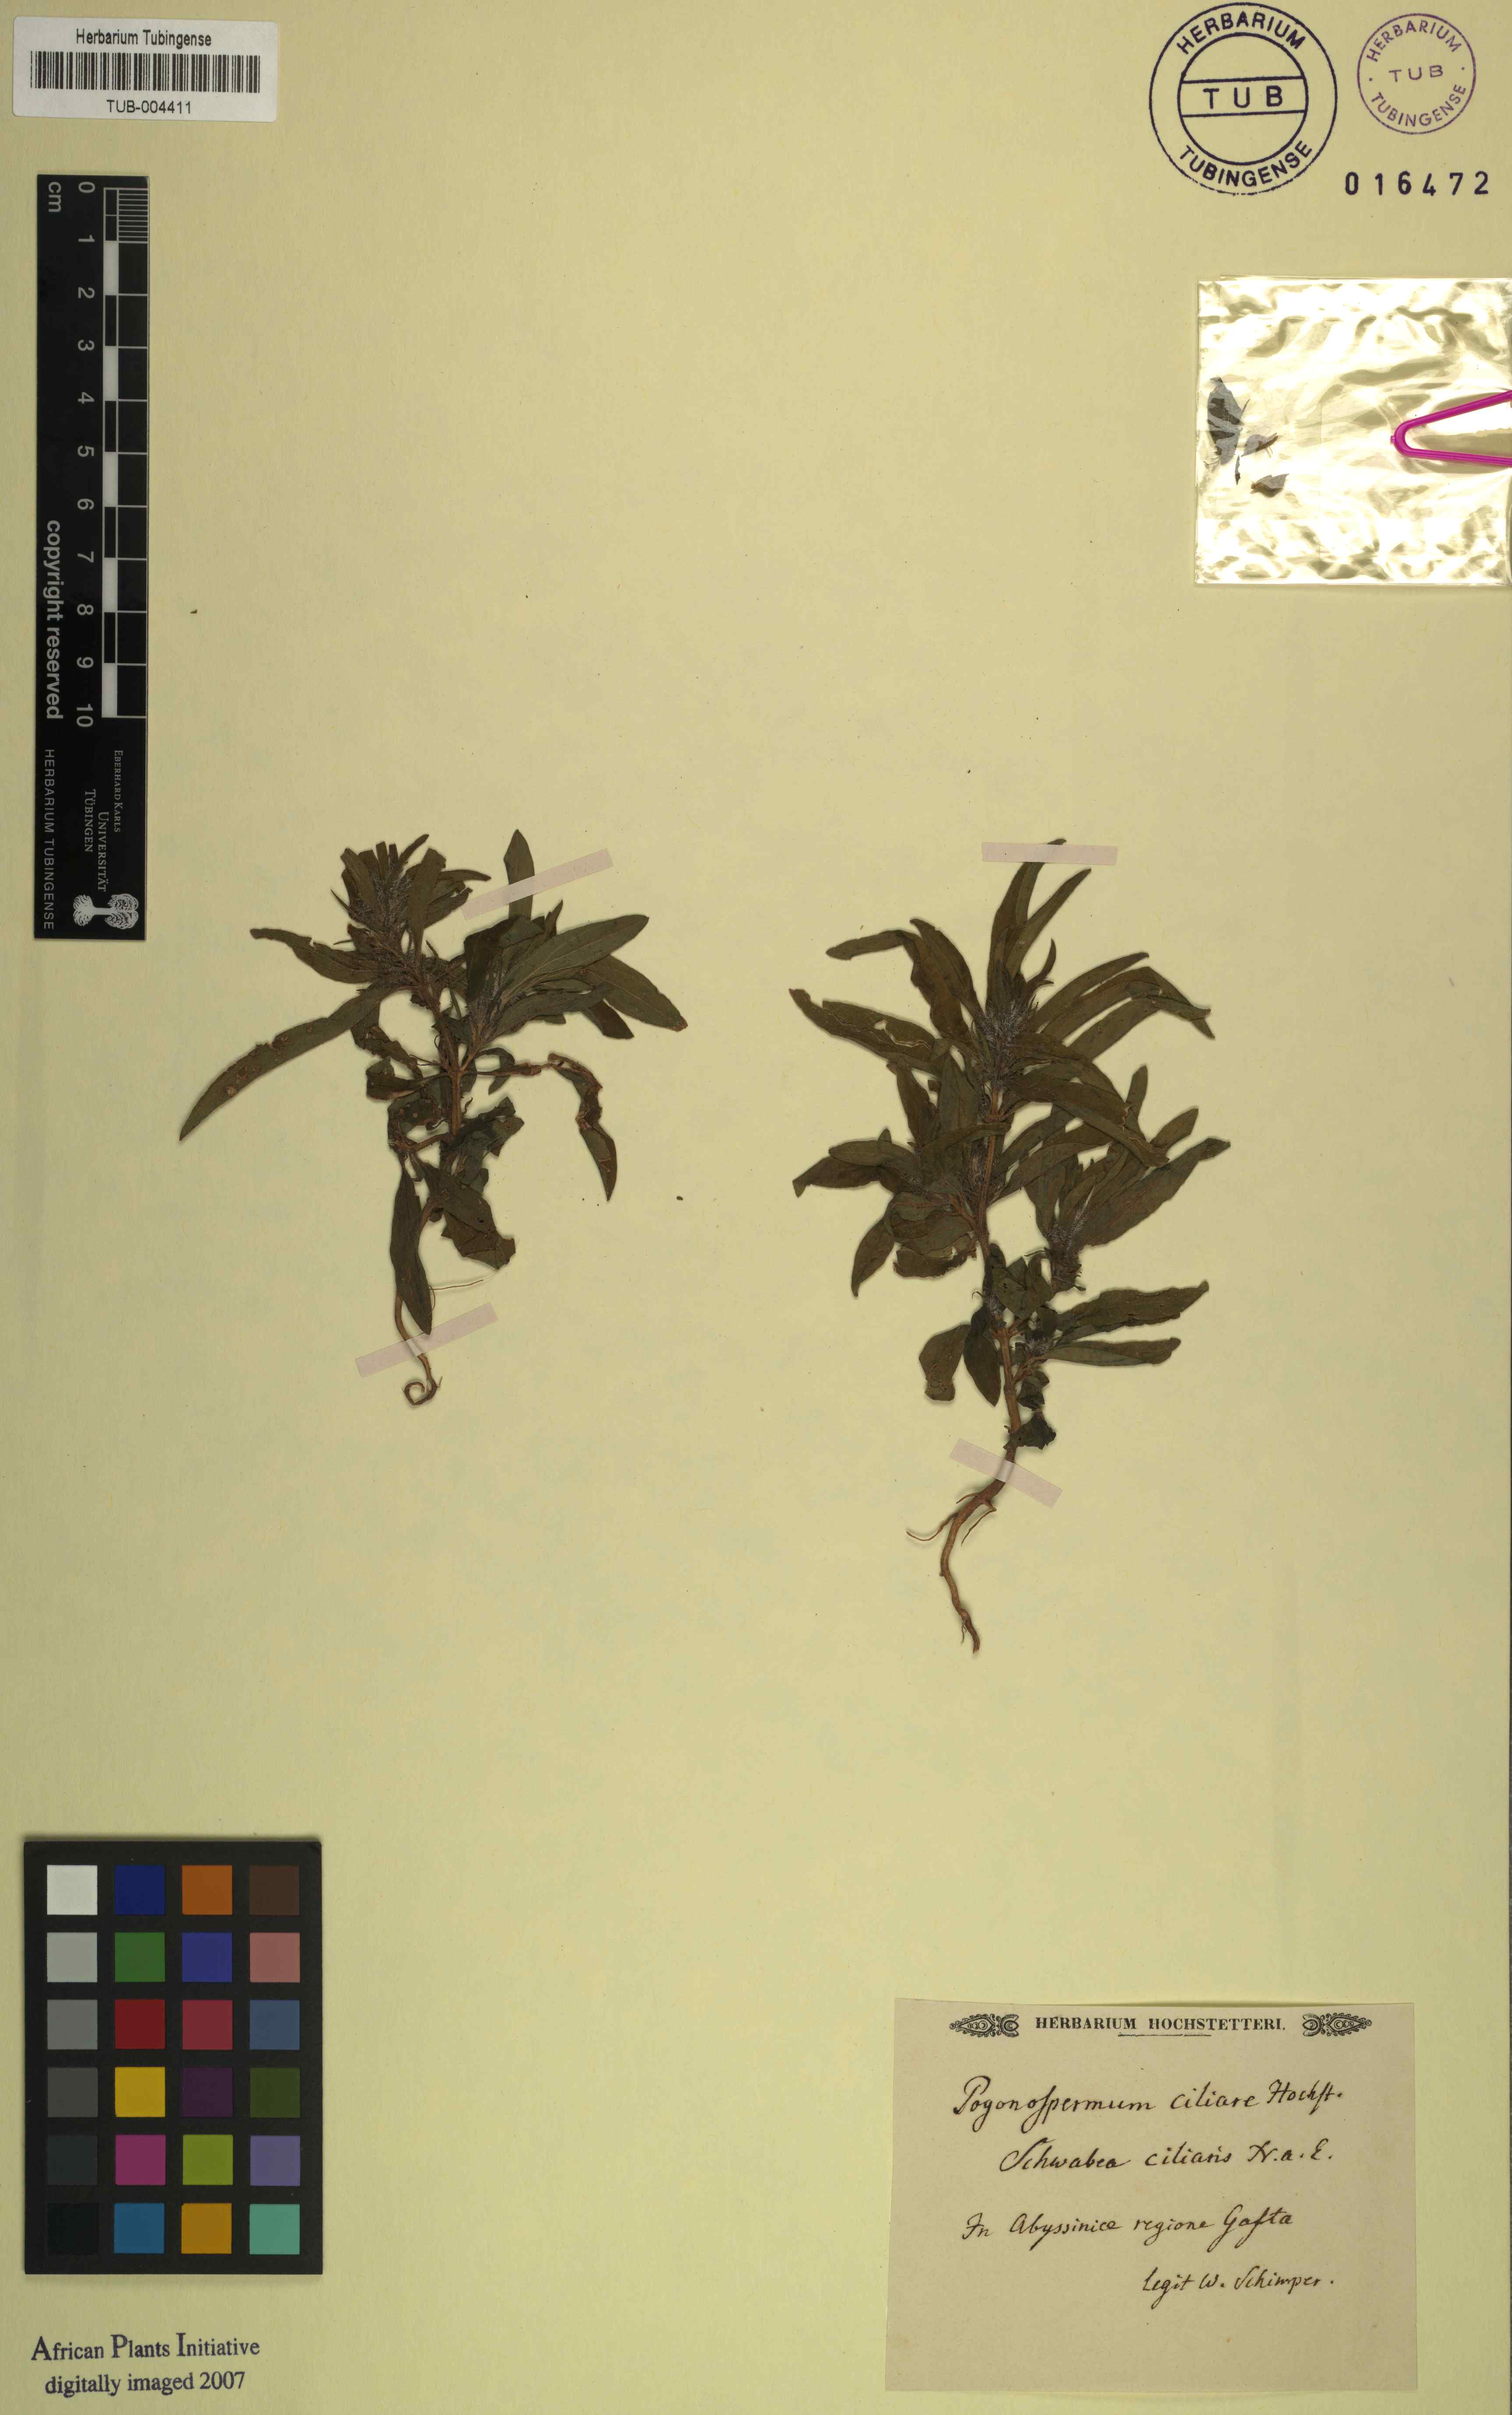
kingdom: Plantae
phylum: Tracheophyta
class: Magnoliopsida
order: Lamiales
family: Acanthaceae
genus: Pogonospermum
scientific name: Pogonospermum ciliare
